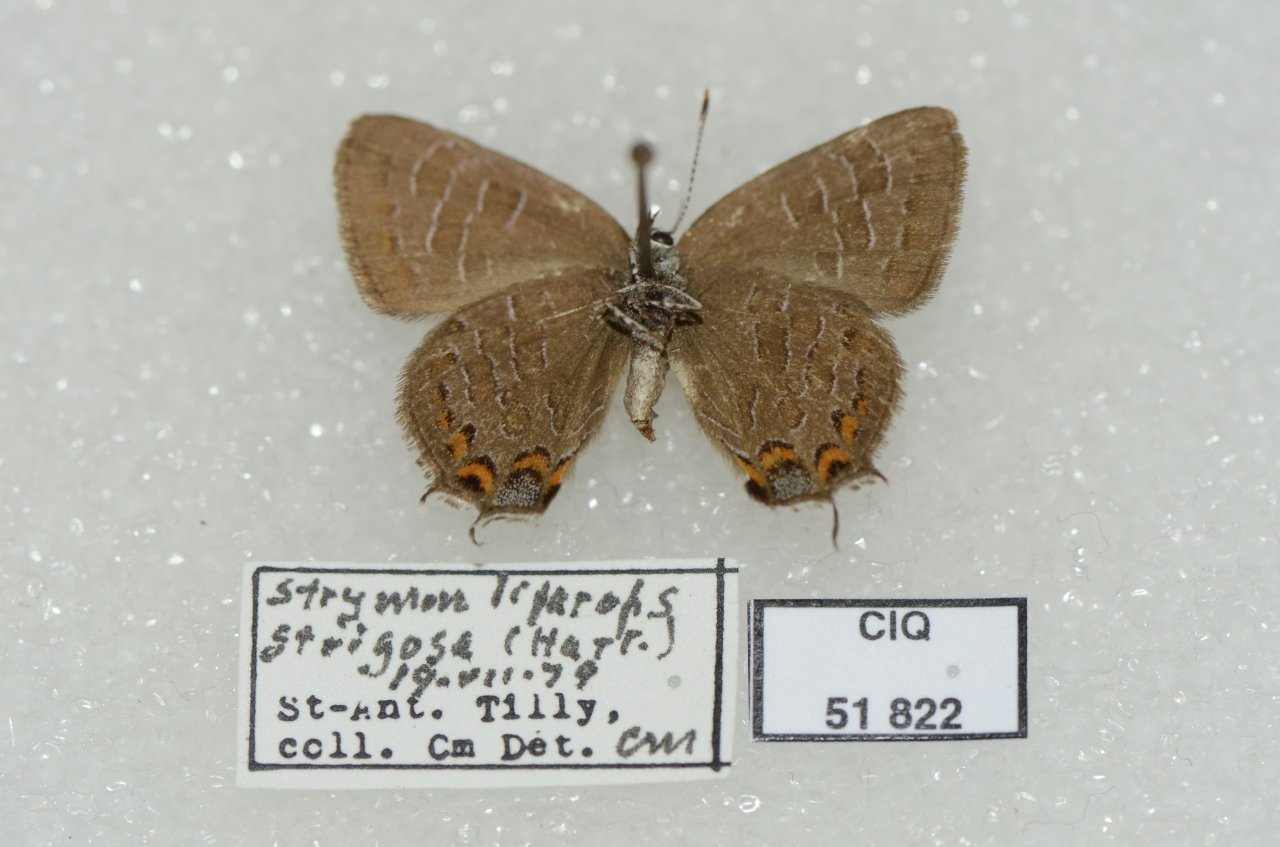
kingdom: Animalia
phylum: Arthropoda
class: Insecta
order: Lepidoptera
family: Lycaenidae
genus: Satyrium
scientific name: Satyrium liparops
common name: Striped Hairstreak
